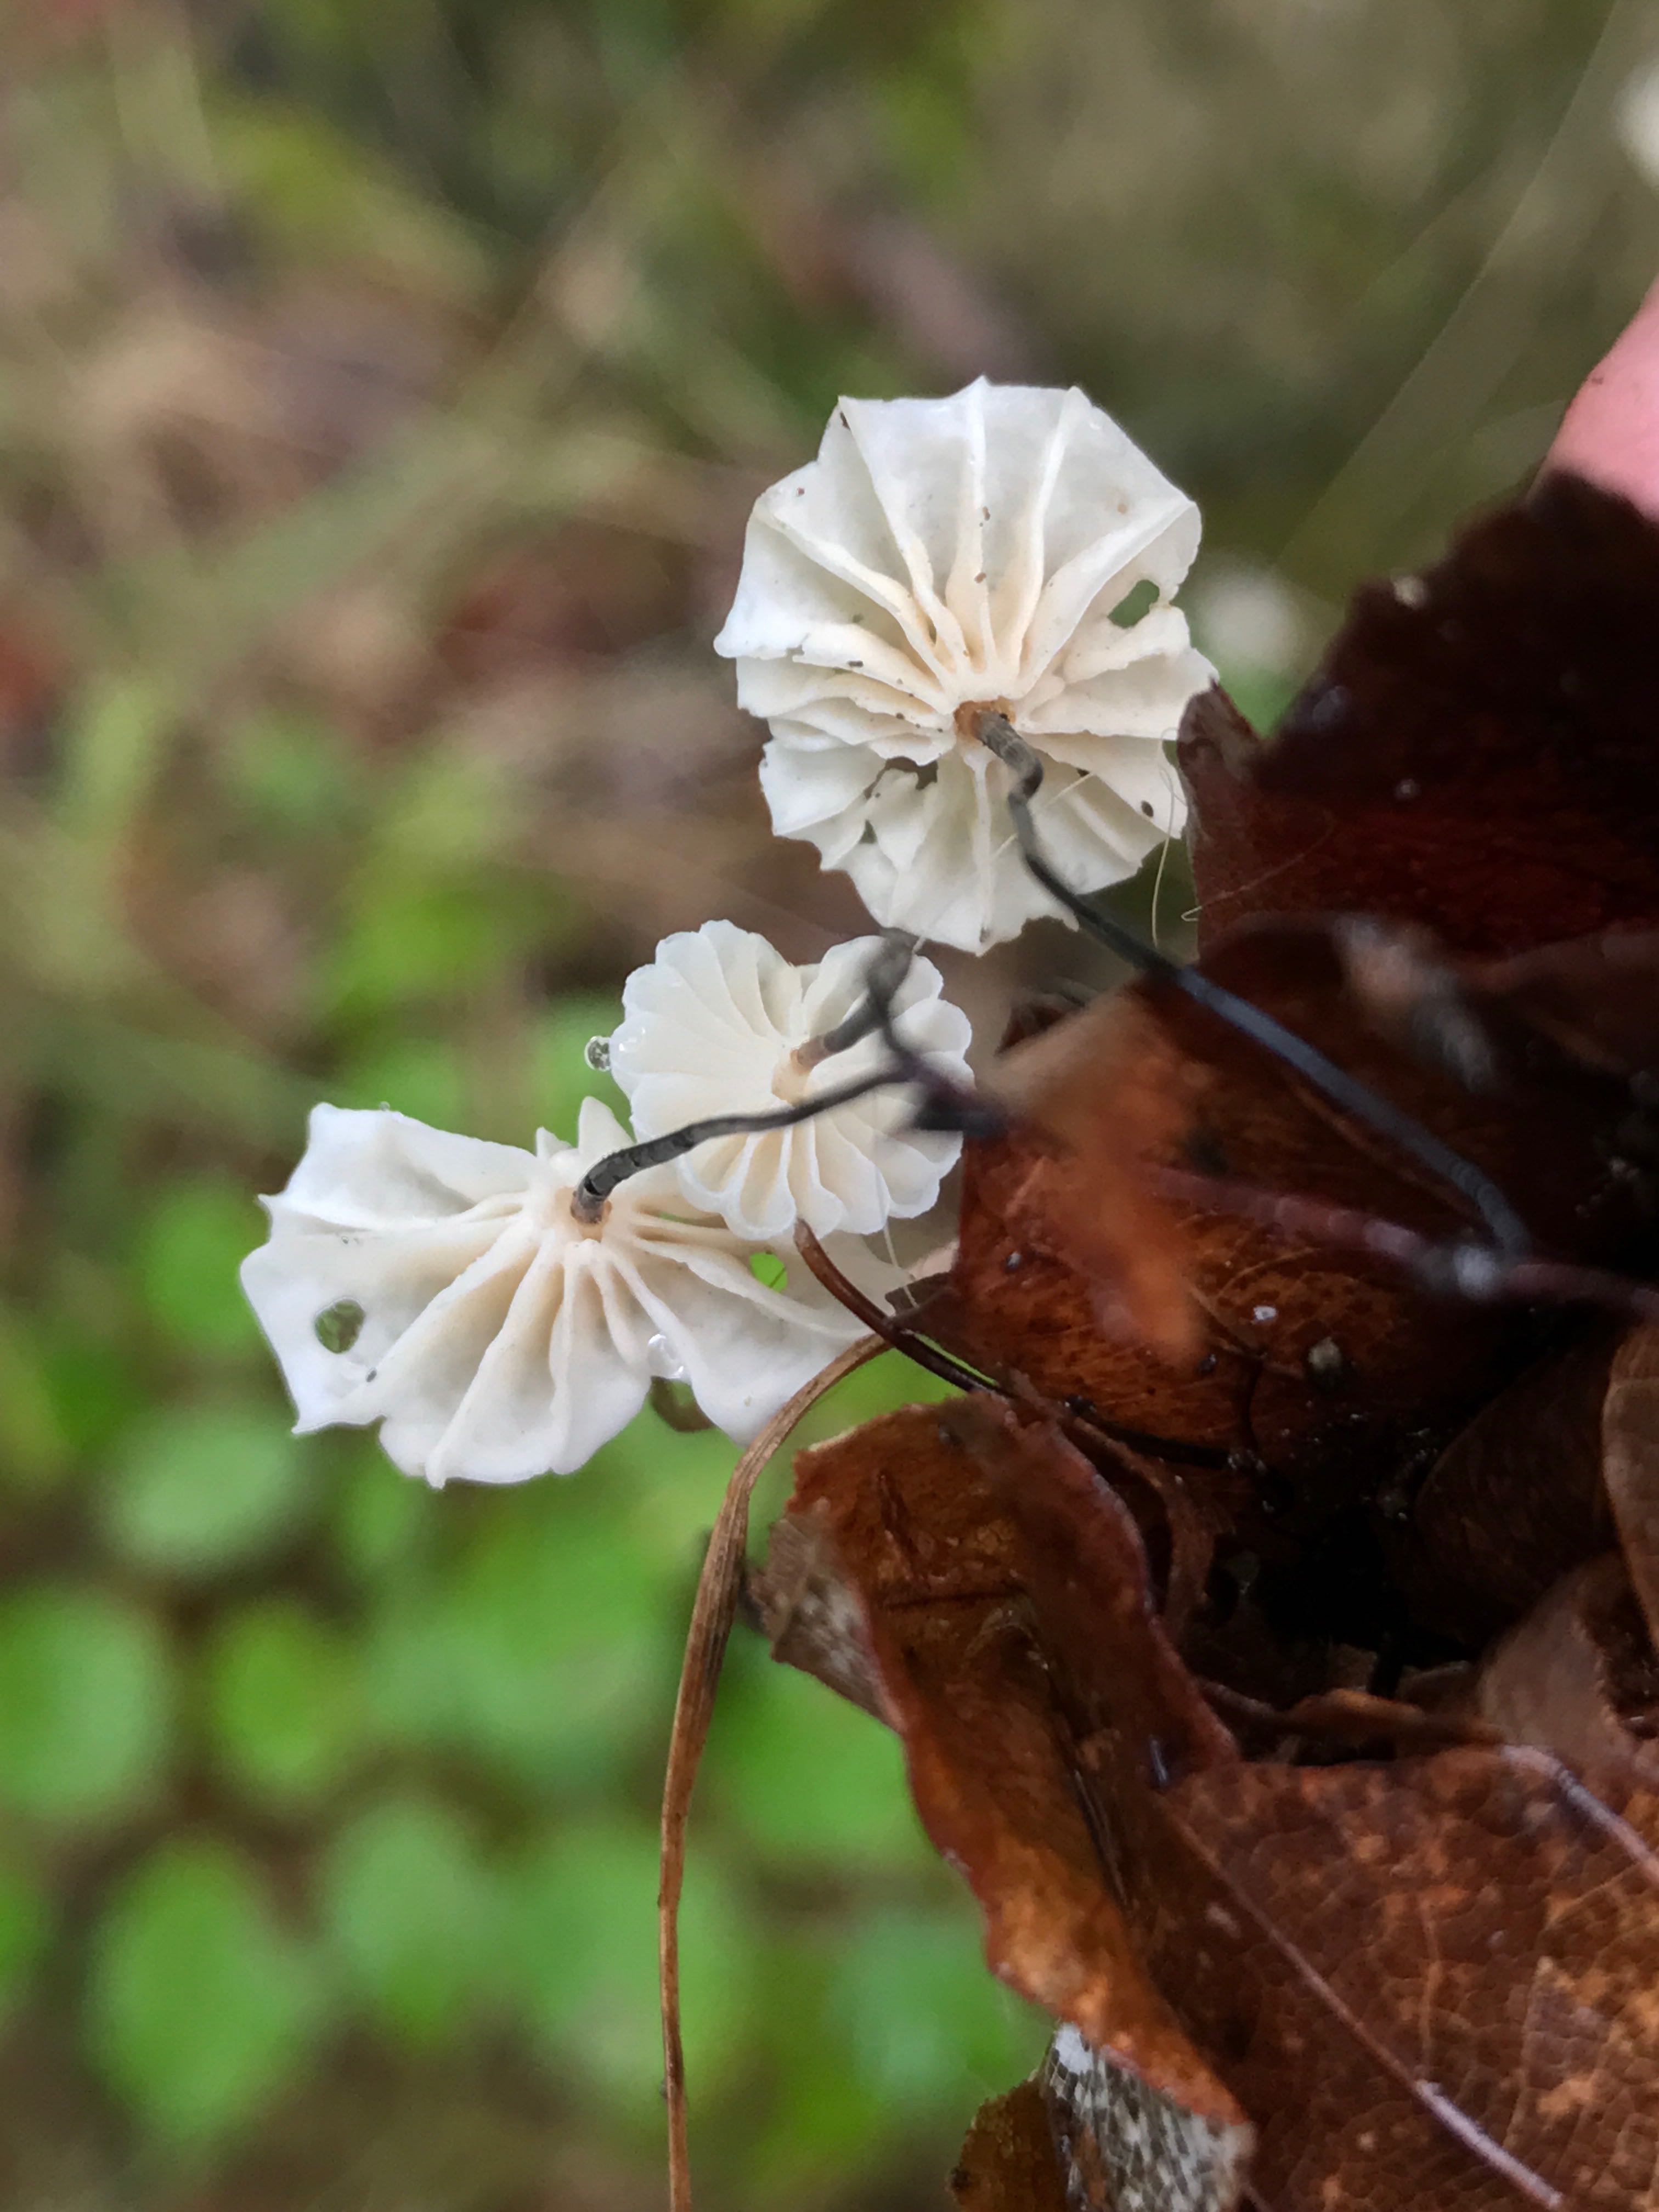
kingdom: Fungi
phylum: Basidiomycota
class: Agaricomycetes
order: Agaricales
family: Marasmiaceae
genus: Marasmius
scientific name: Marasmius rotula
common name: hjul-bruskhat
